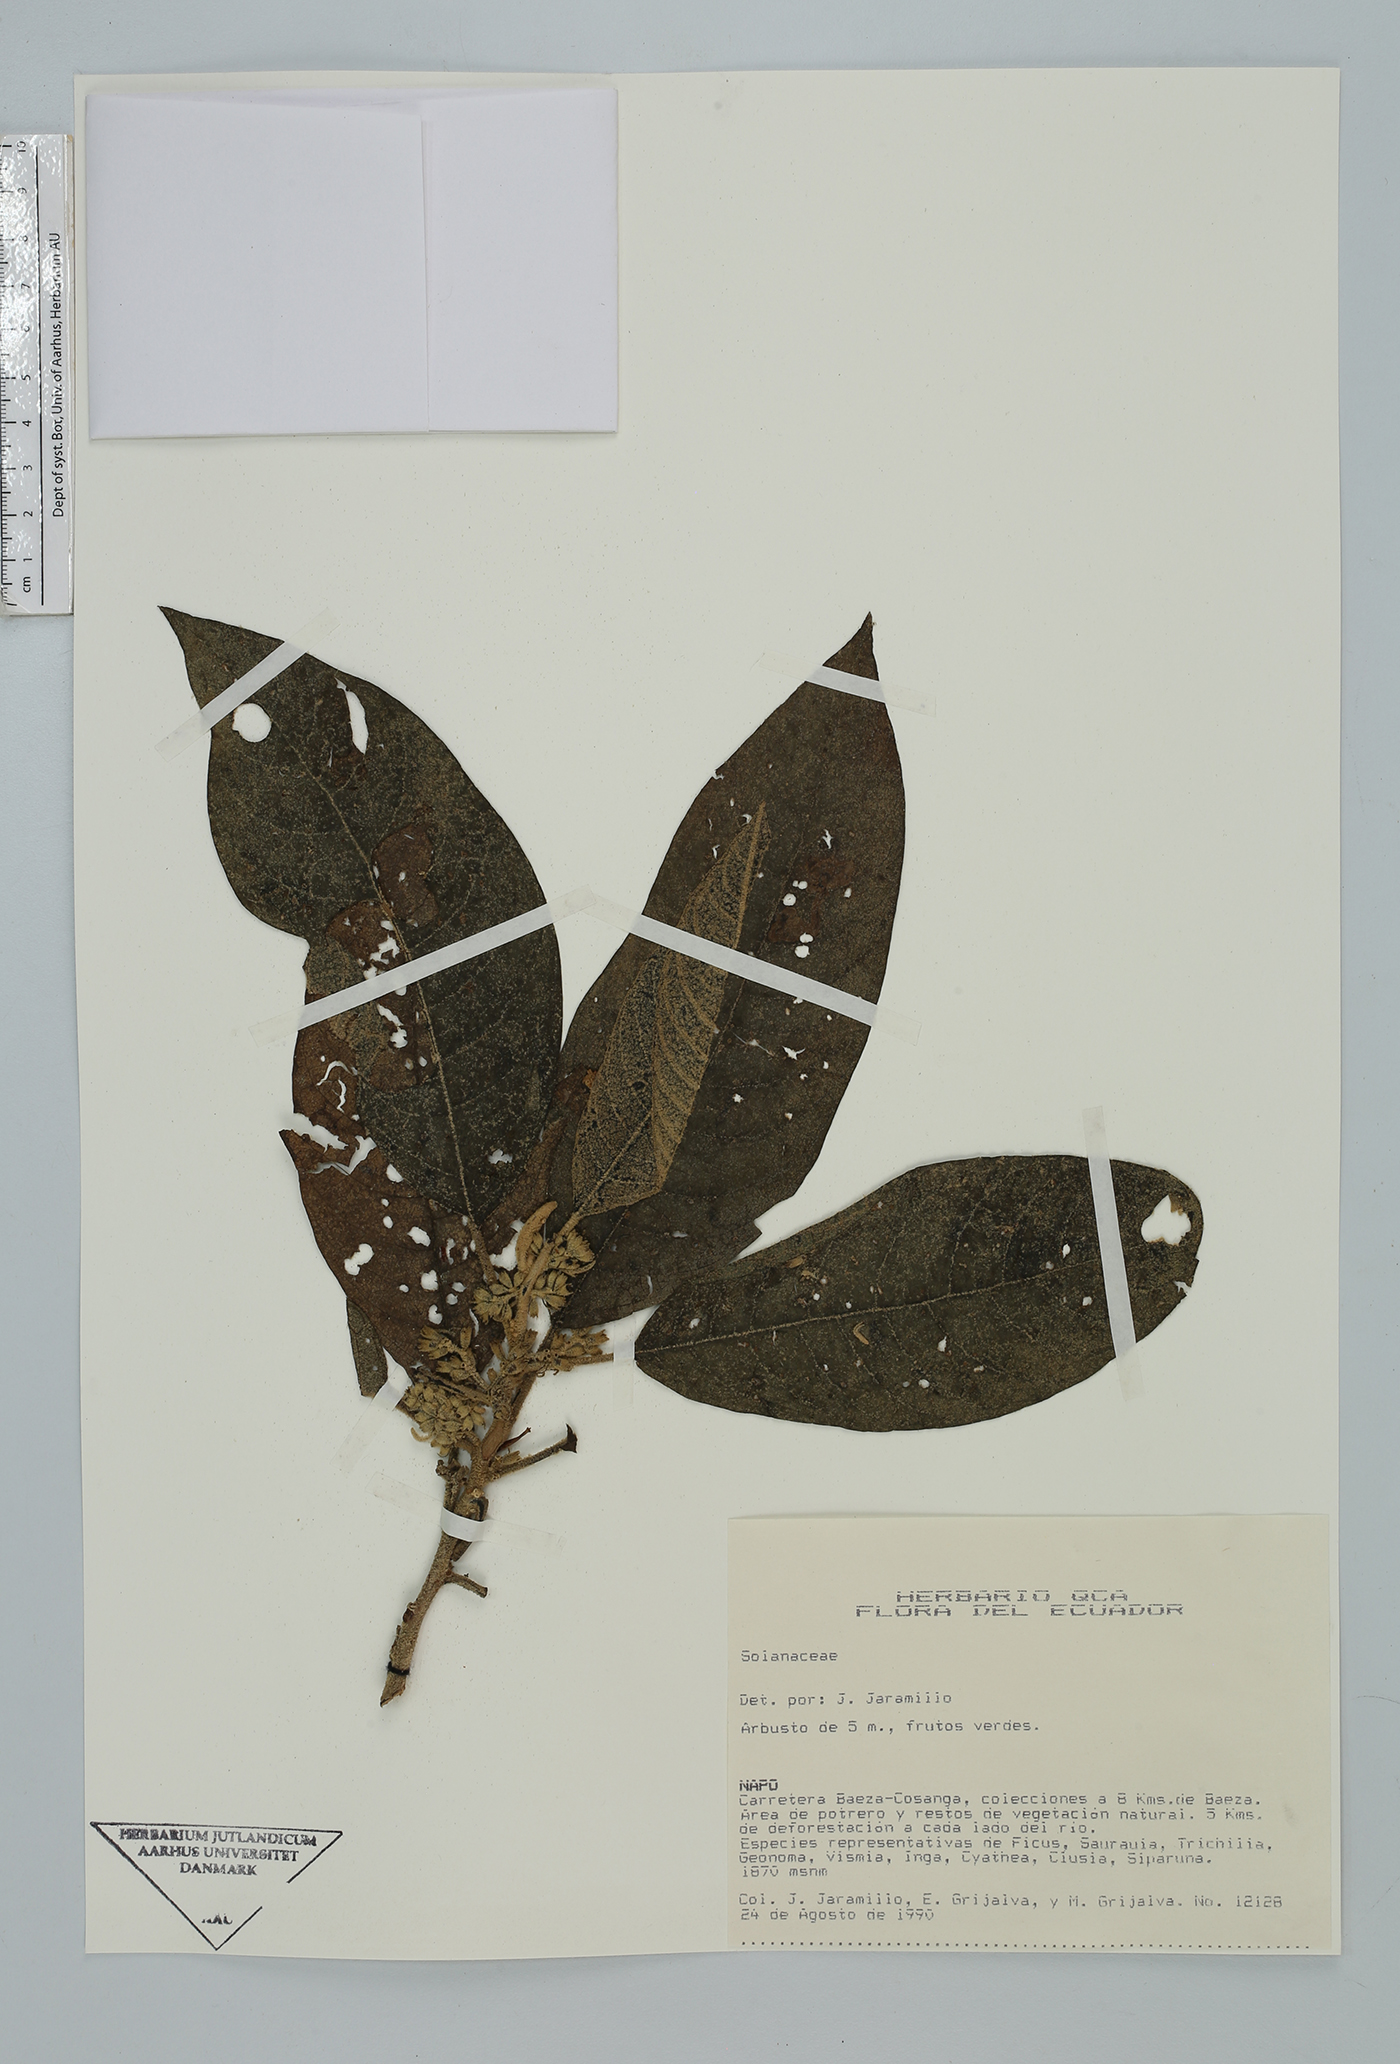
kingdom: Plantae
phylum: Tracheophyta
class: Magnoliopsida
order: Solanales
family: Solanaceae
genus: Cestrum
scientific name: Cestrum
